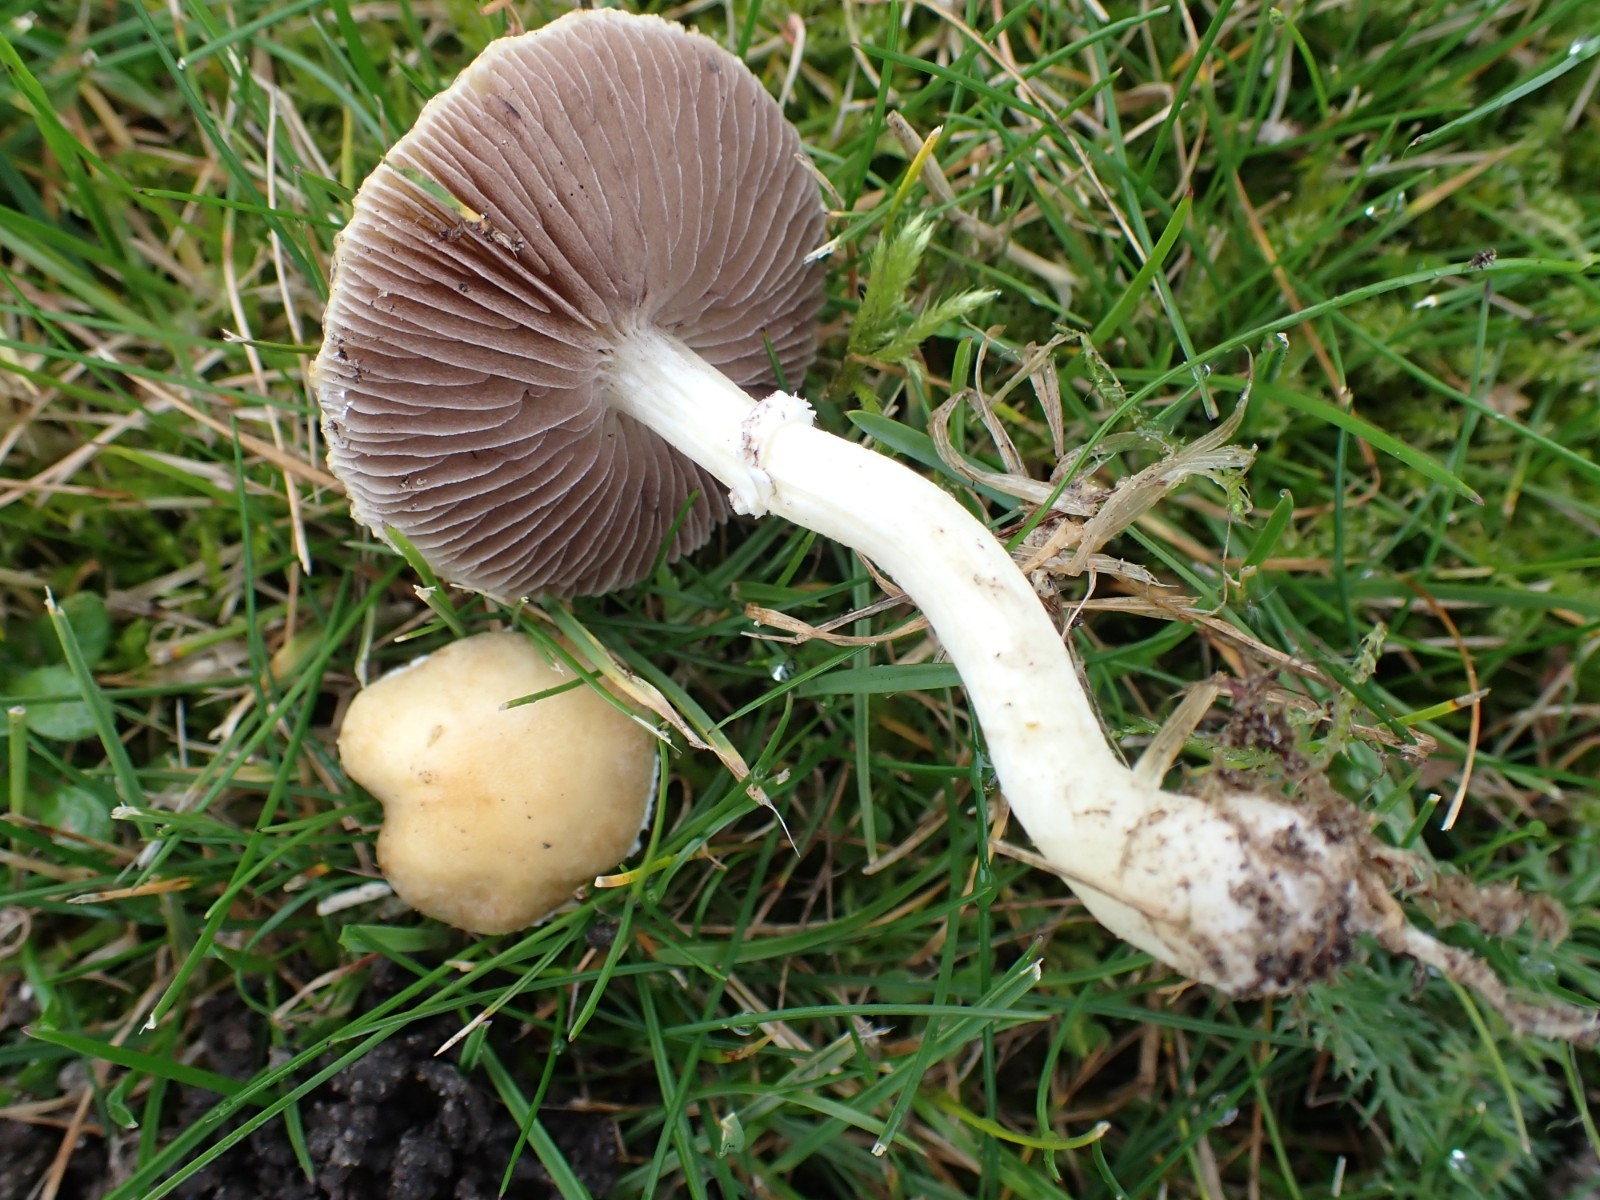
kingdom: Fungi
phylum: Basidiomycota
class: Agaricomycetes
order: Agaricales
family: Hymenogastraceae
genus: Psilocybe
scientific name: Psilocybe coronilla
